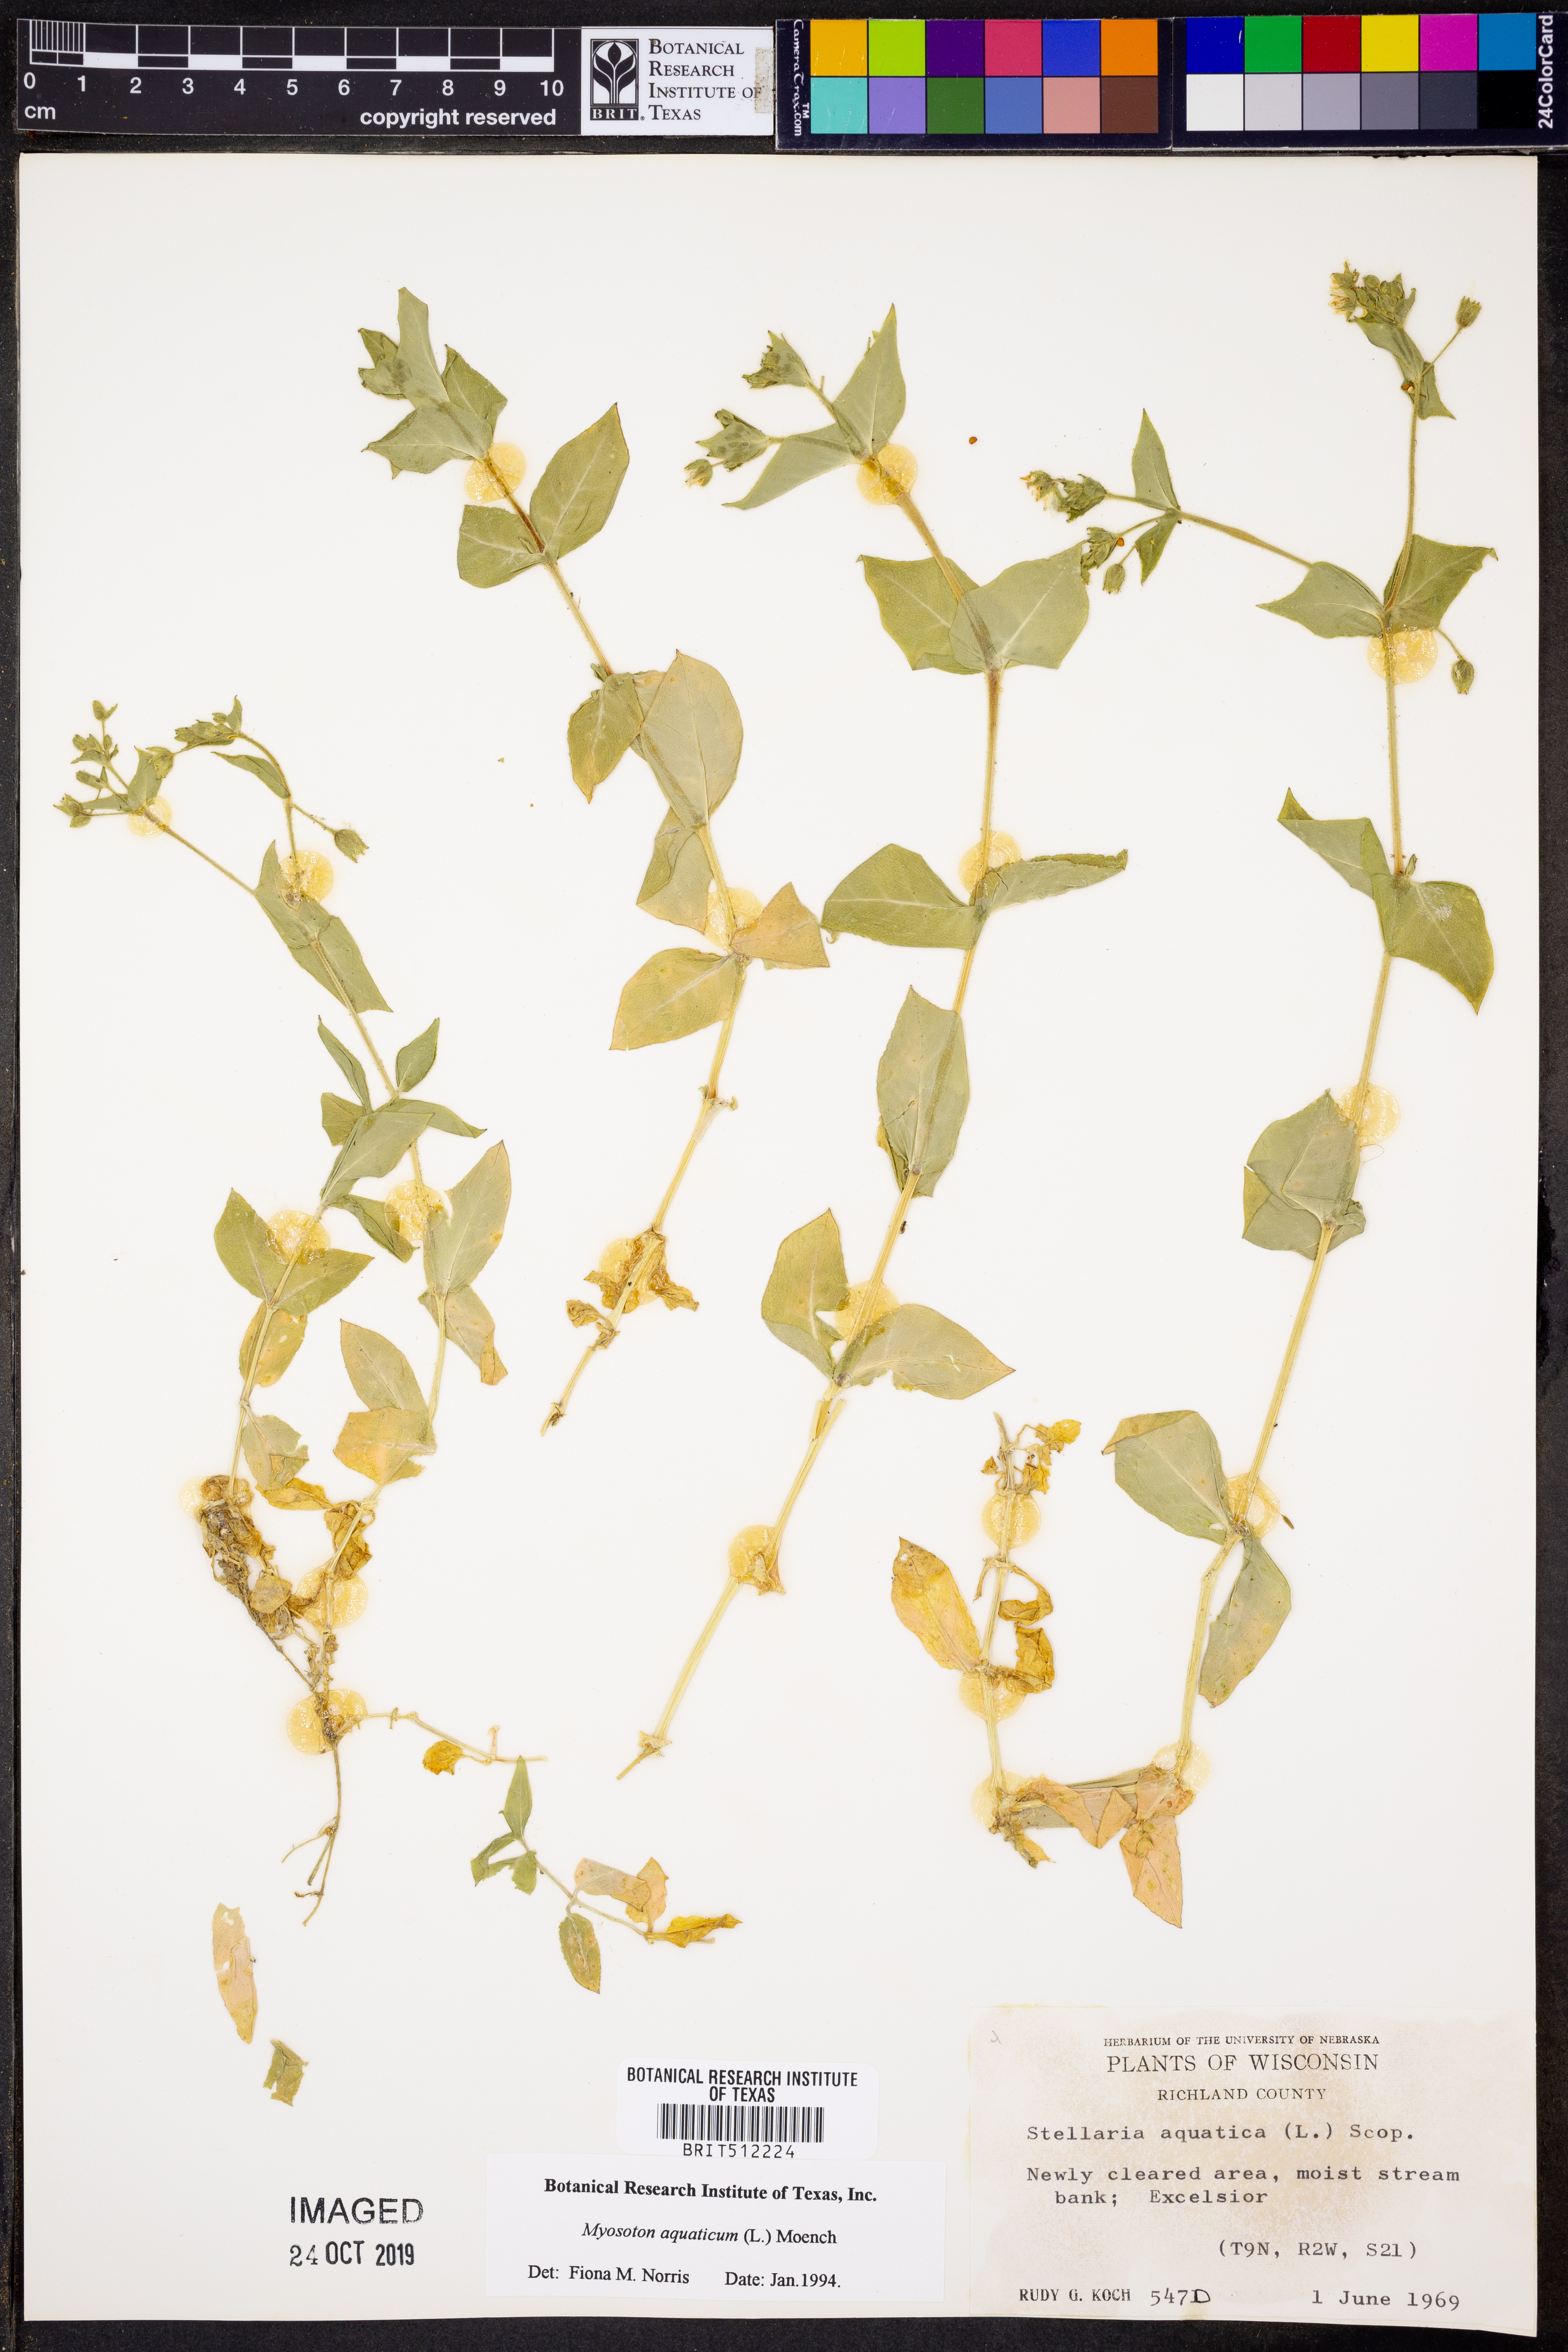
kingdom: Plantae
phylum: Tracheophyta
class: Magnoliopsida
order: Caryophyllales
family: Caryophyllaceae
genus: Stellaria
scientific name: Stellaria aquatica
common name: Water chickweed
